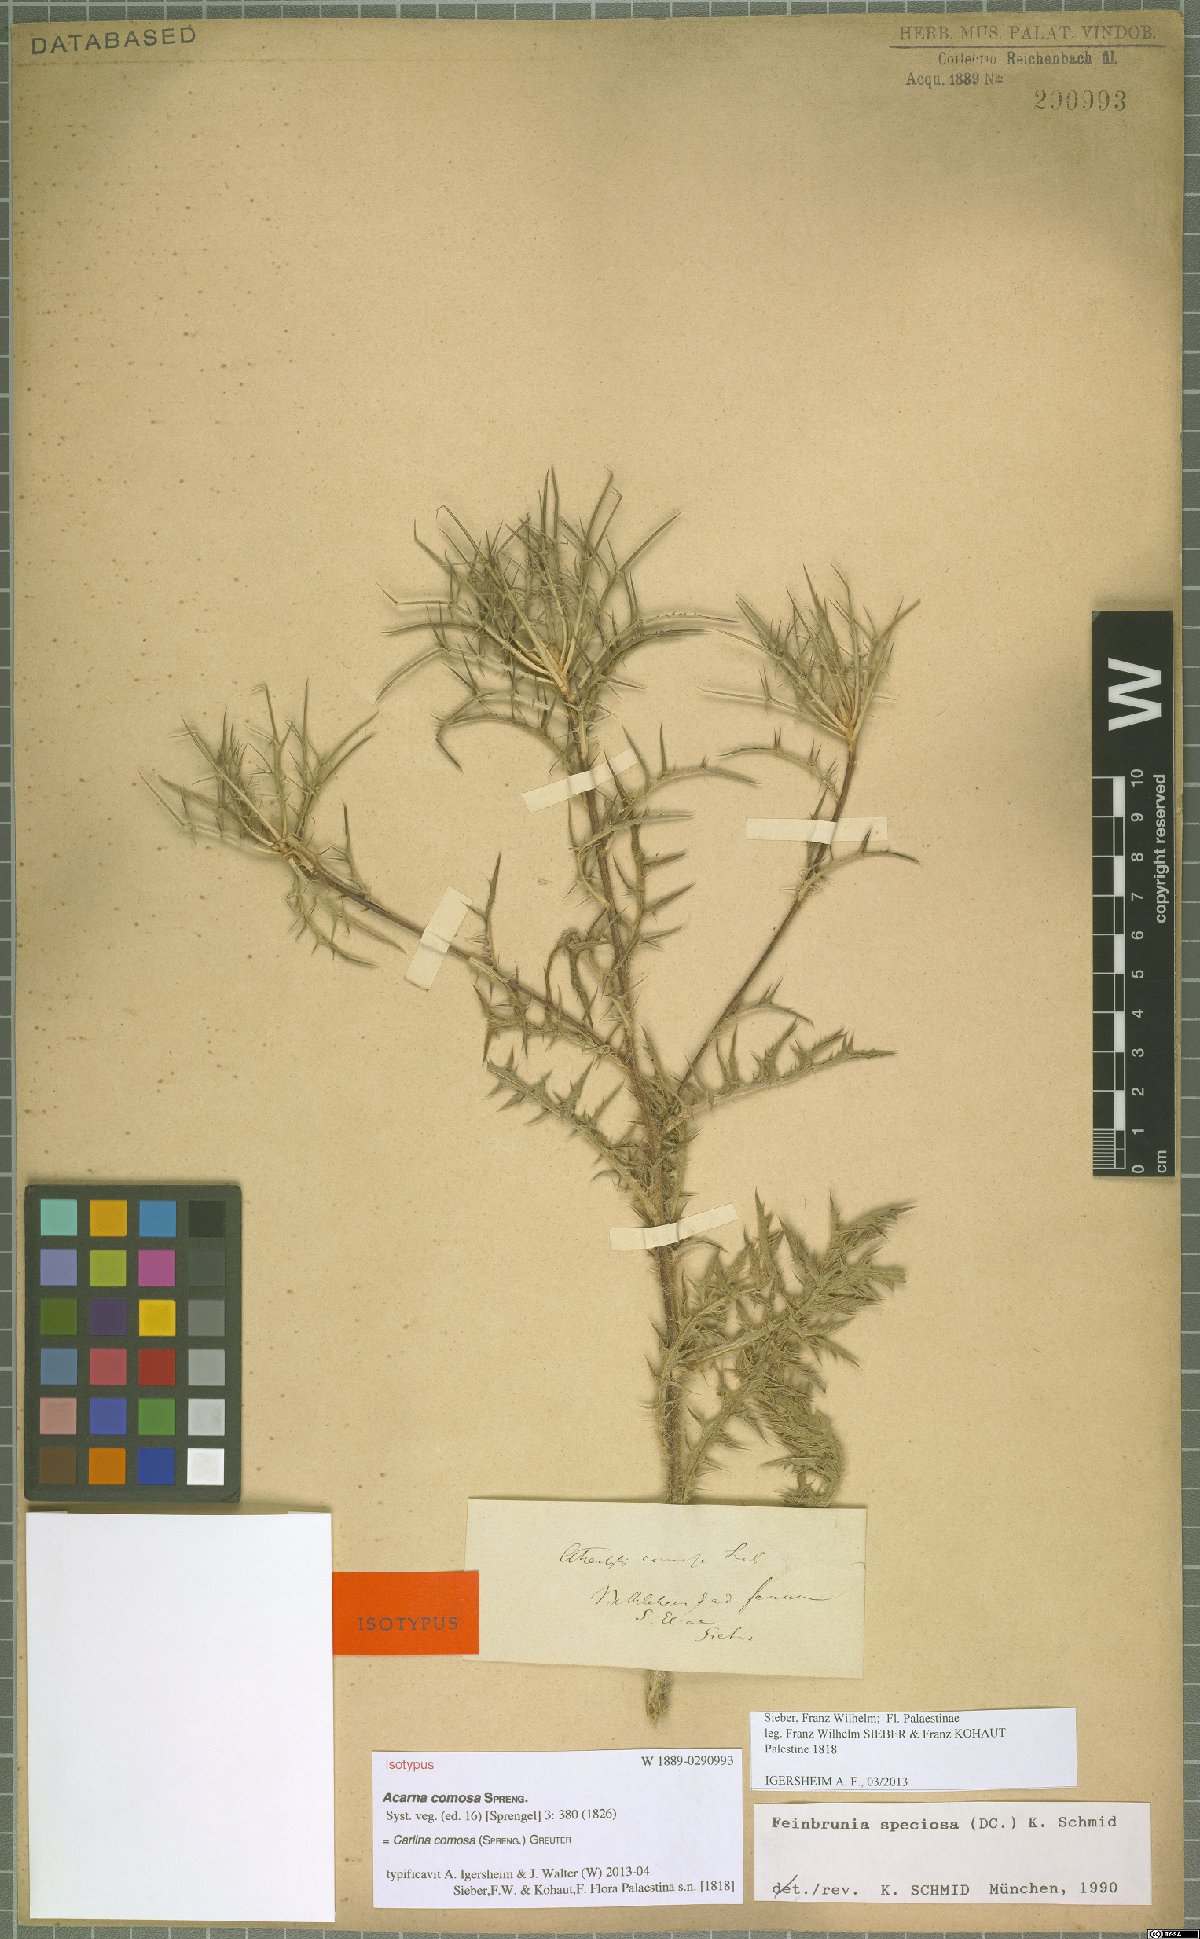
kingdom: Plantae
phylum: Tracheophyta
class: Magnoliopsida
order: Asterales
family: Asteraceae
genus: Chamaeleon
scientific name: Chamaeleon comosus
